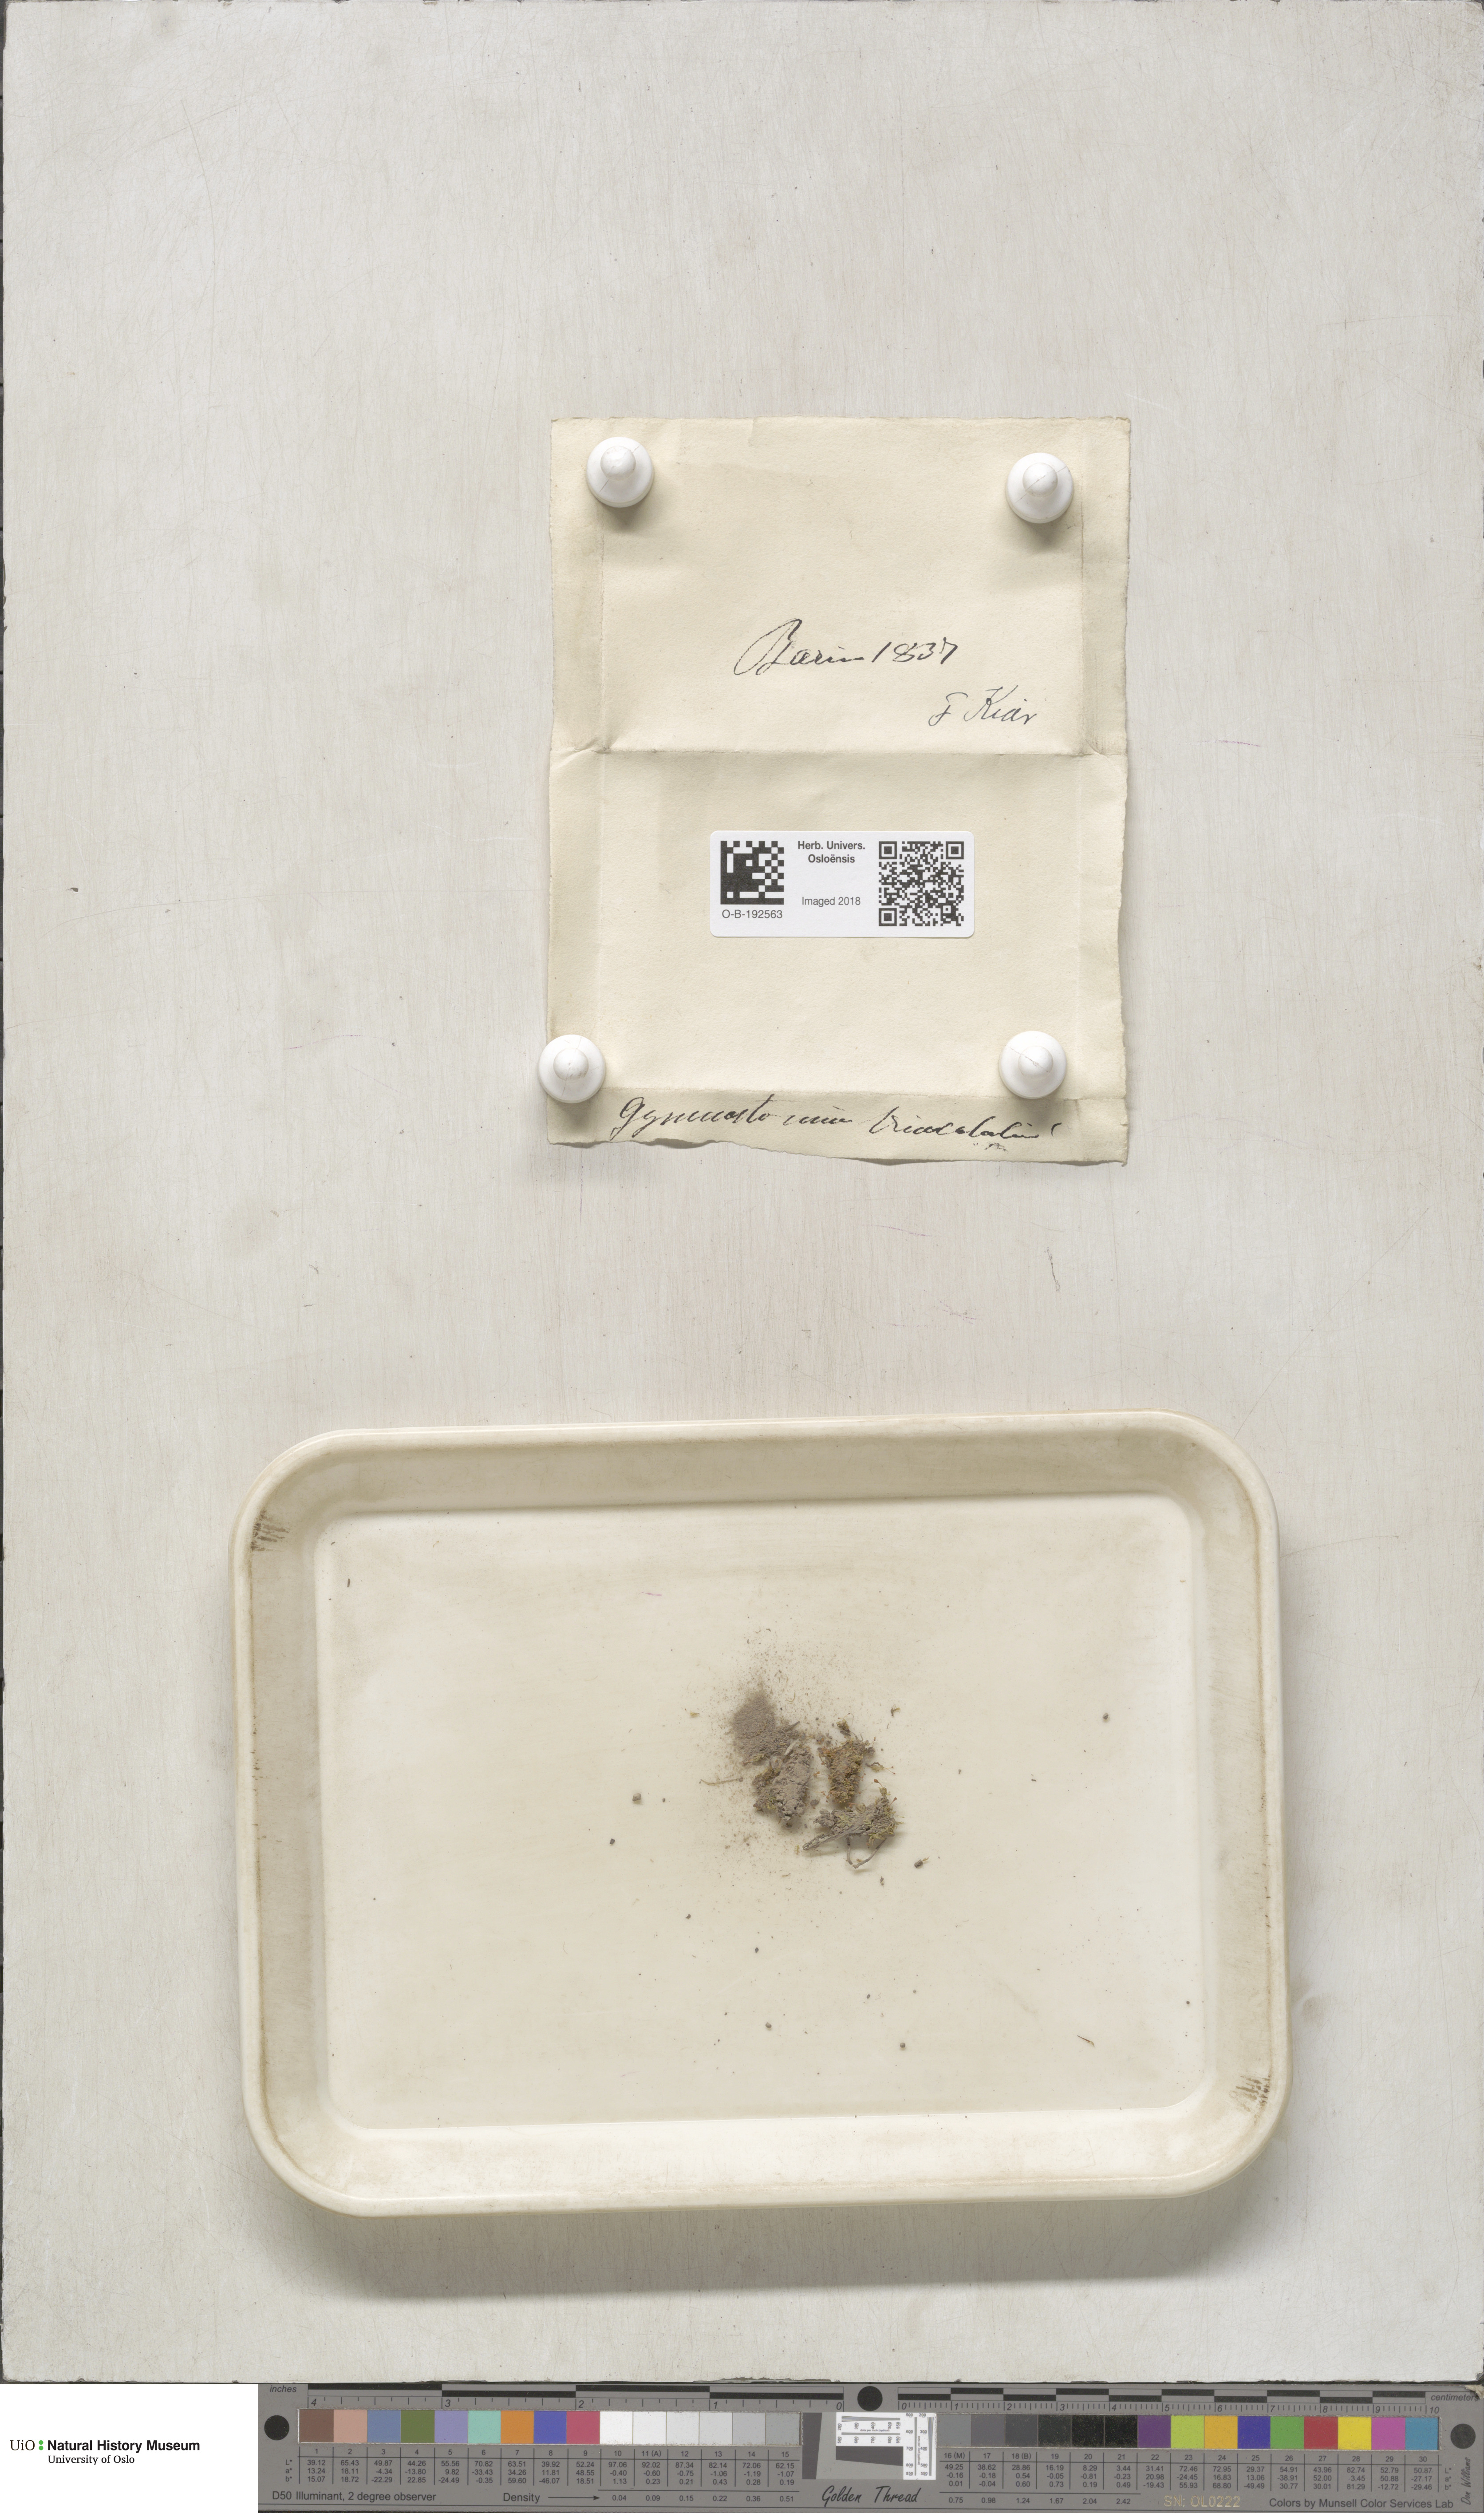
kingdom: Plantae
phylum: Bryophyta
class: Bryopsida
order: Pottiales
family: Pottiaceae
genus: Tortula
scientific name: Tortula truncata
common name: Truncated screw moss
